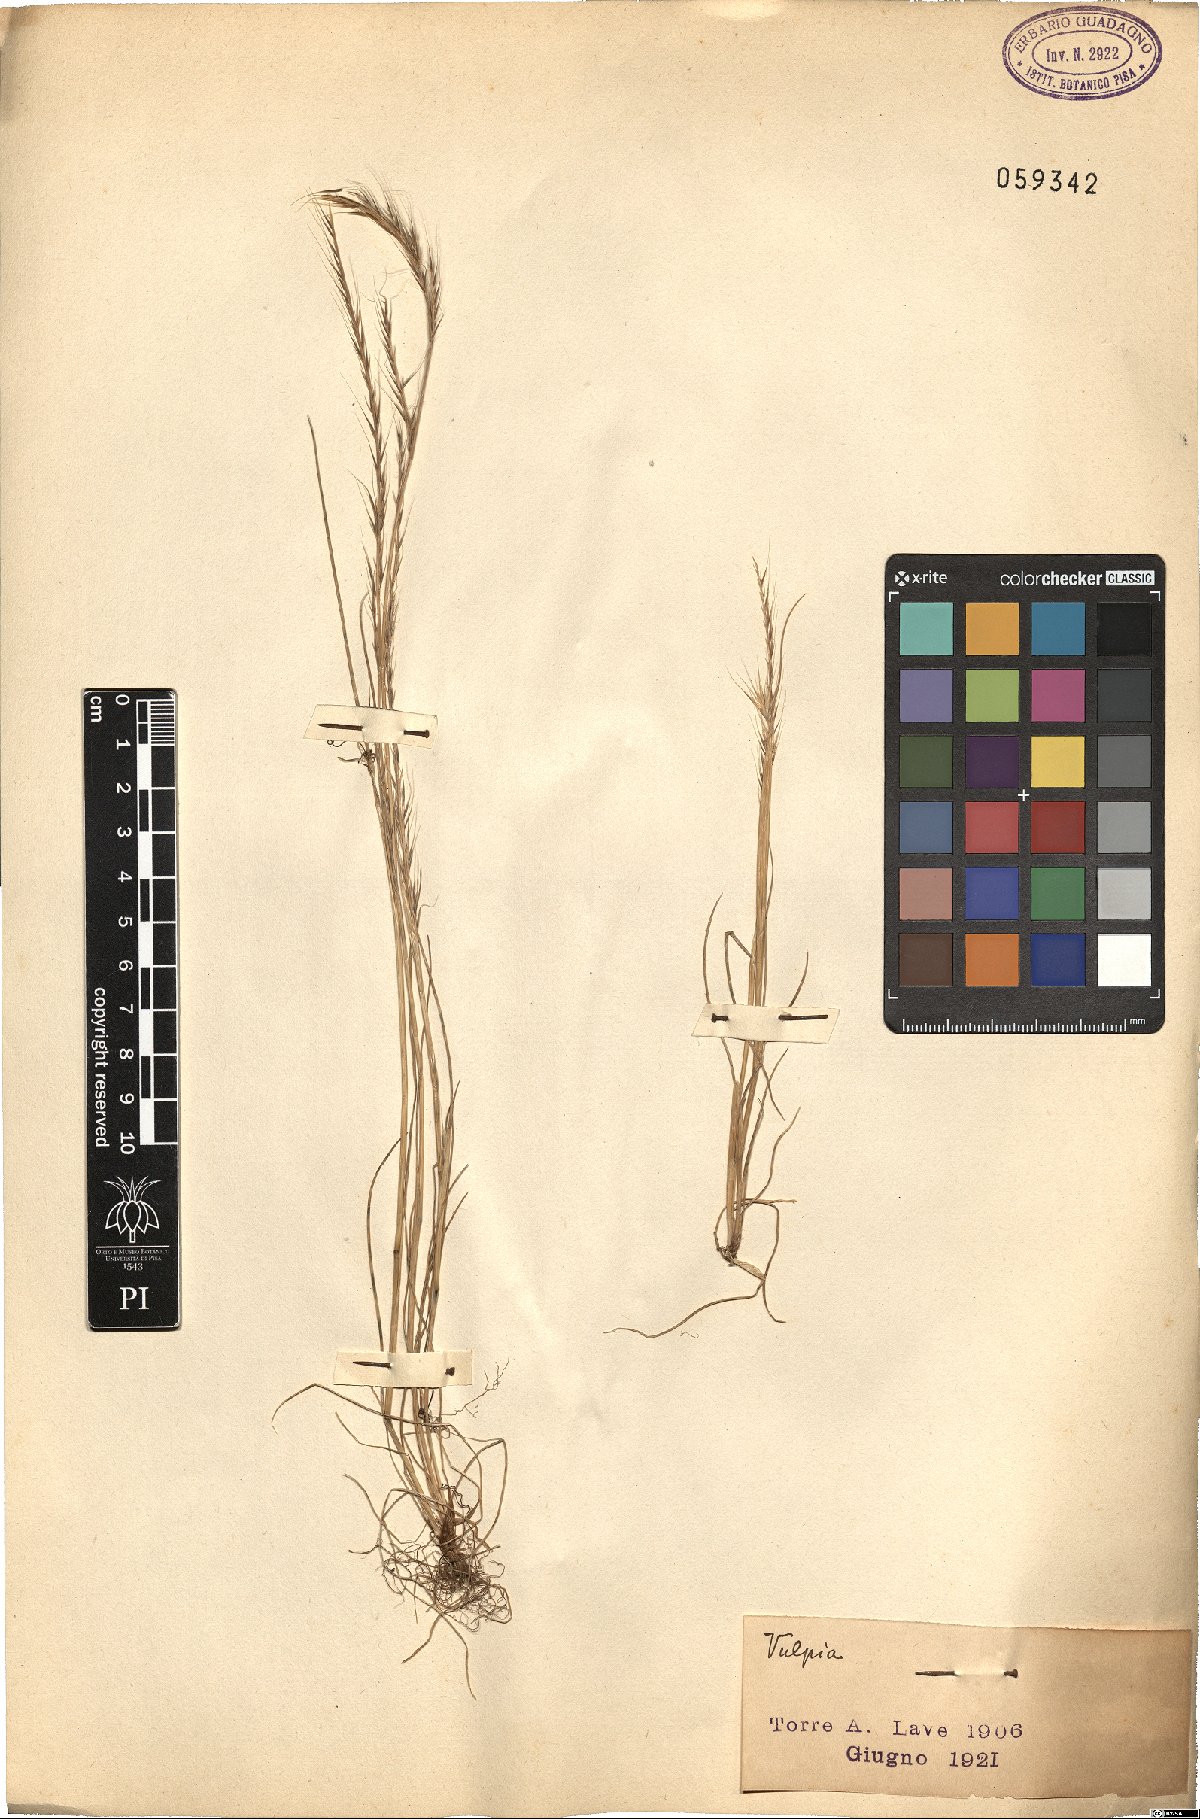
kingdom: Plantae
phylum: Tracheophyta
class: Liliopsida
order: Poales
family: Poaceae
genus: Festuca
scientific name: Festuca
